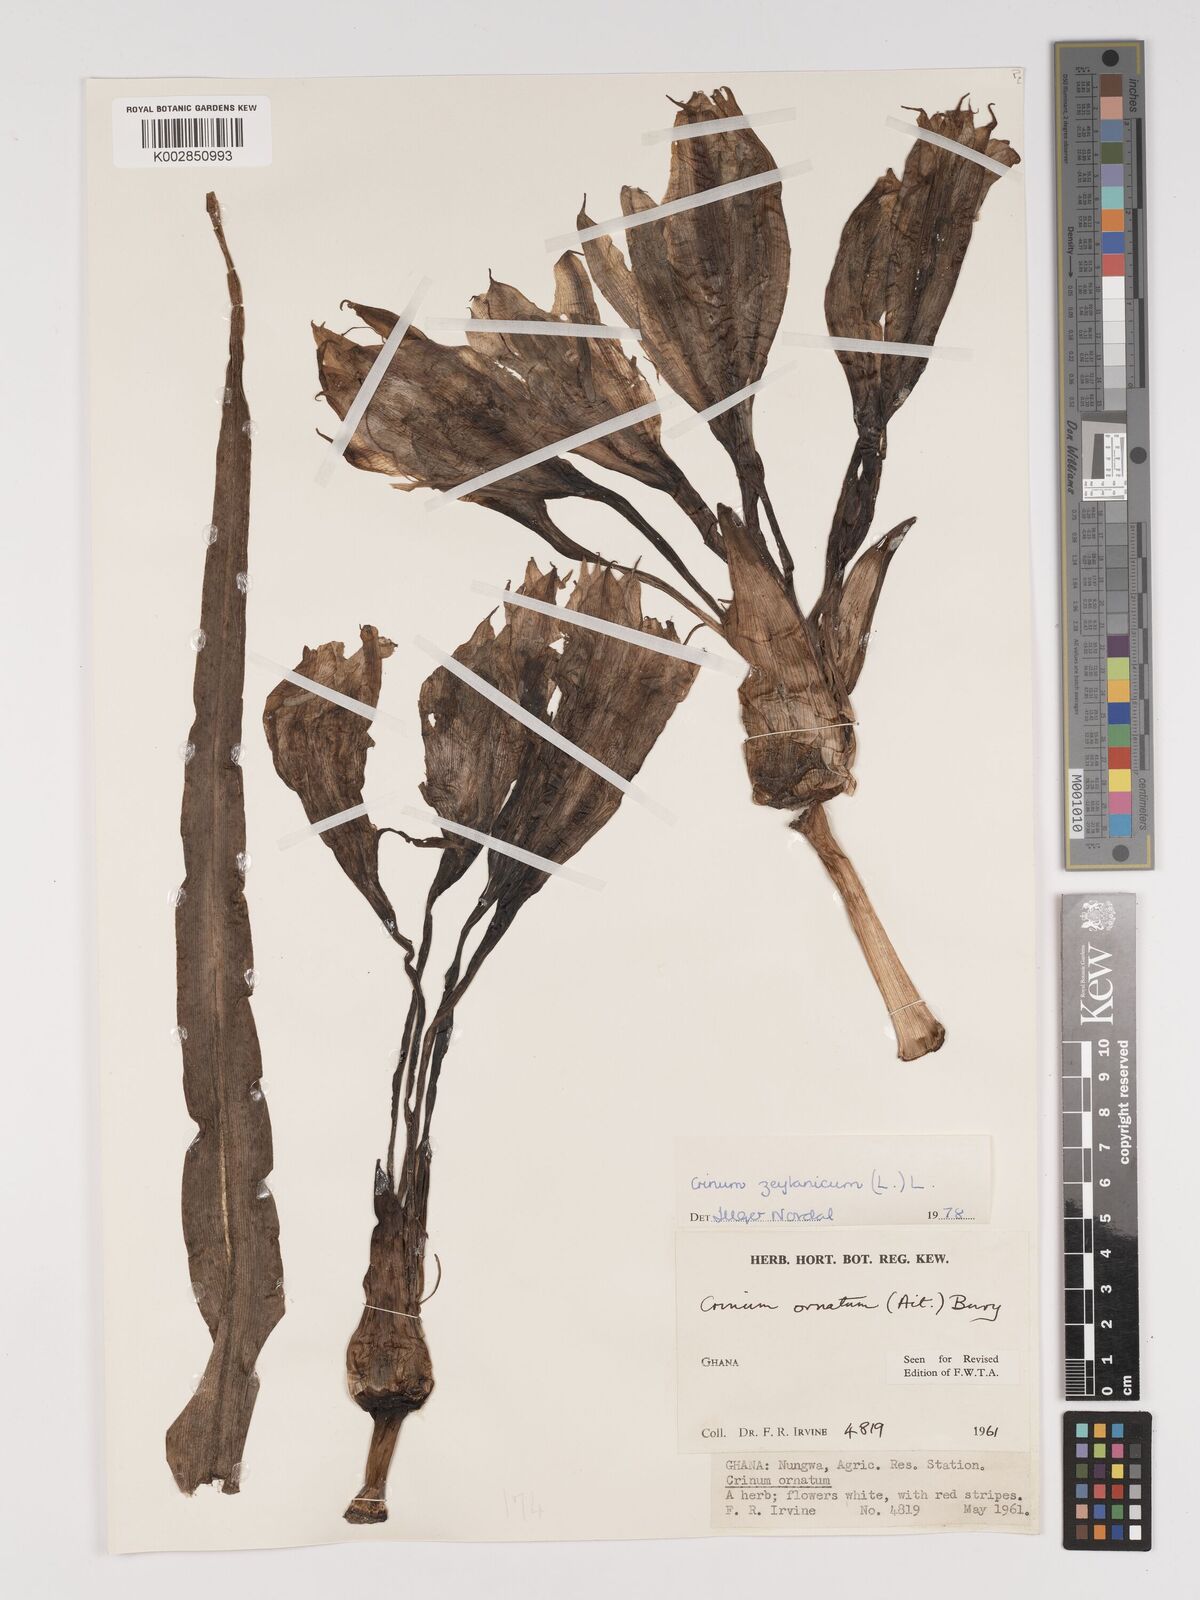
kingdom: Plantae
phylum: Tracheophyta
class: Liliopsida
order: Asparagales
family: Amaryllidaceae
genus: Crinum
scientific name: Crinum ornatum
